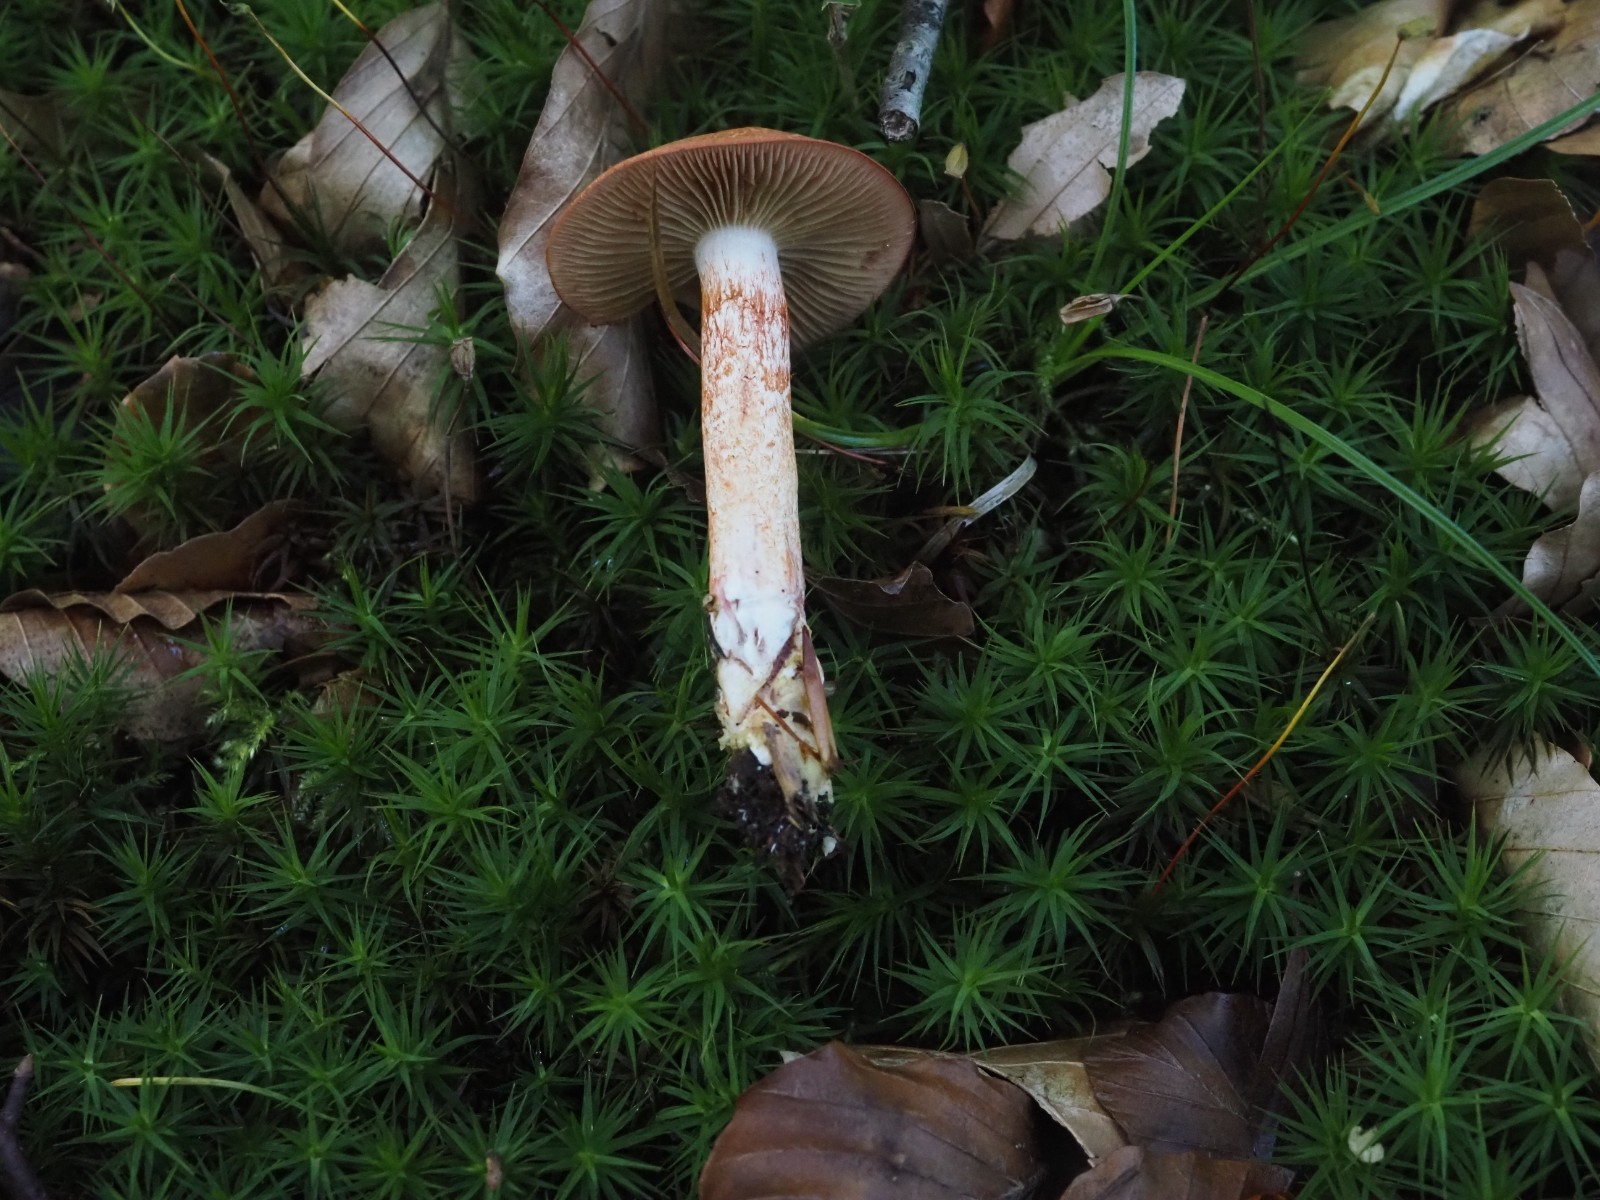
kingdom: Fungi
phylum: Basidiomycota
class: Agaricomycetes
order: Agaricales
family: Cortinariaceae
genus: Cortinarius
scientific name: Cortinarius bolaris
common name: cinnoberskællet slørhat
